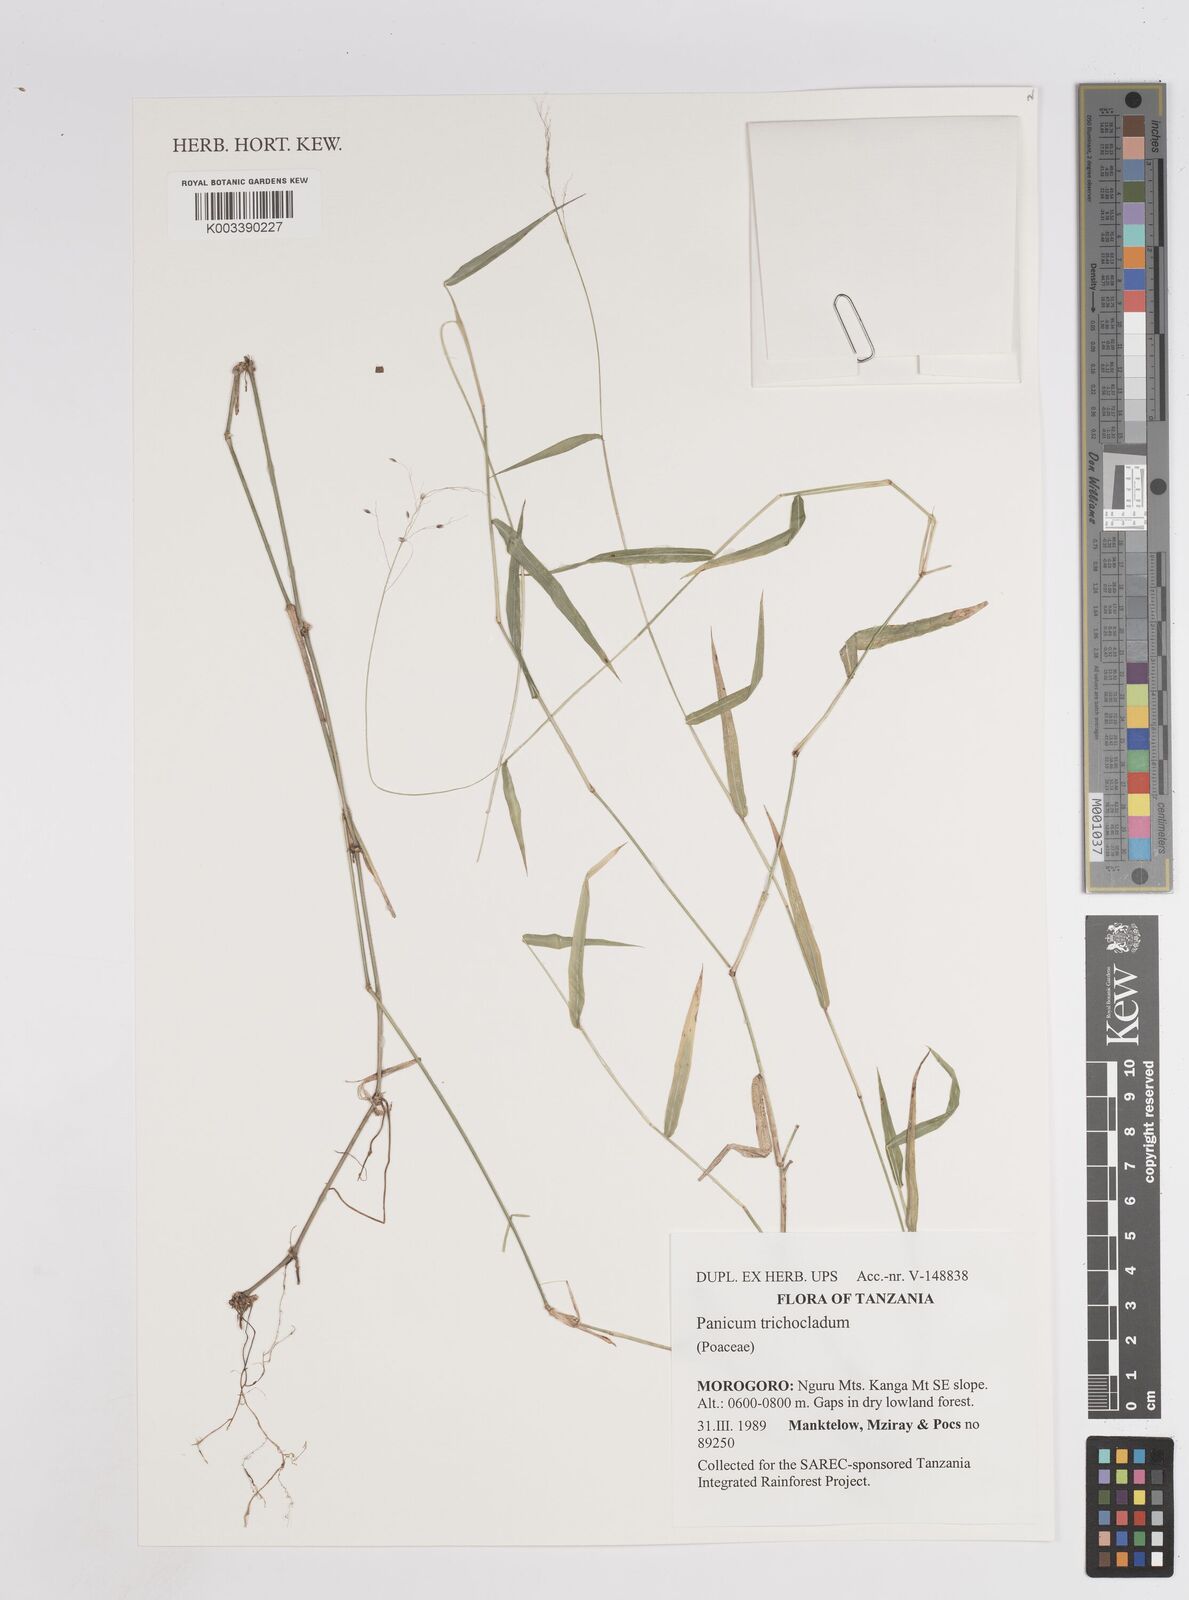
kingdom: Plantae
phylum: Tracheophyta
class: Liliopsida
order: Poales
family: Poaceae
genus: Panicum
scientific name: Panicum trichocladum
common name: Donkey grass
